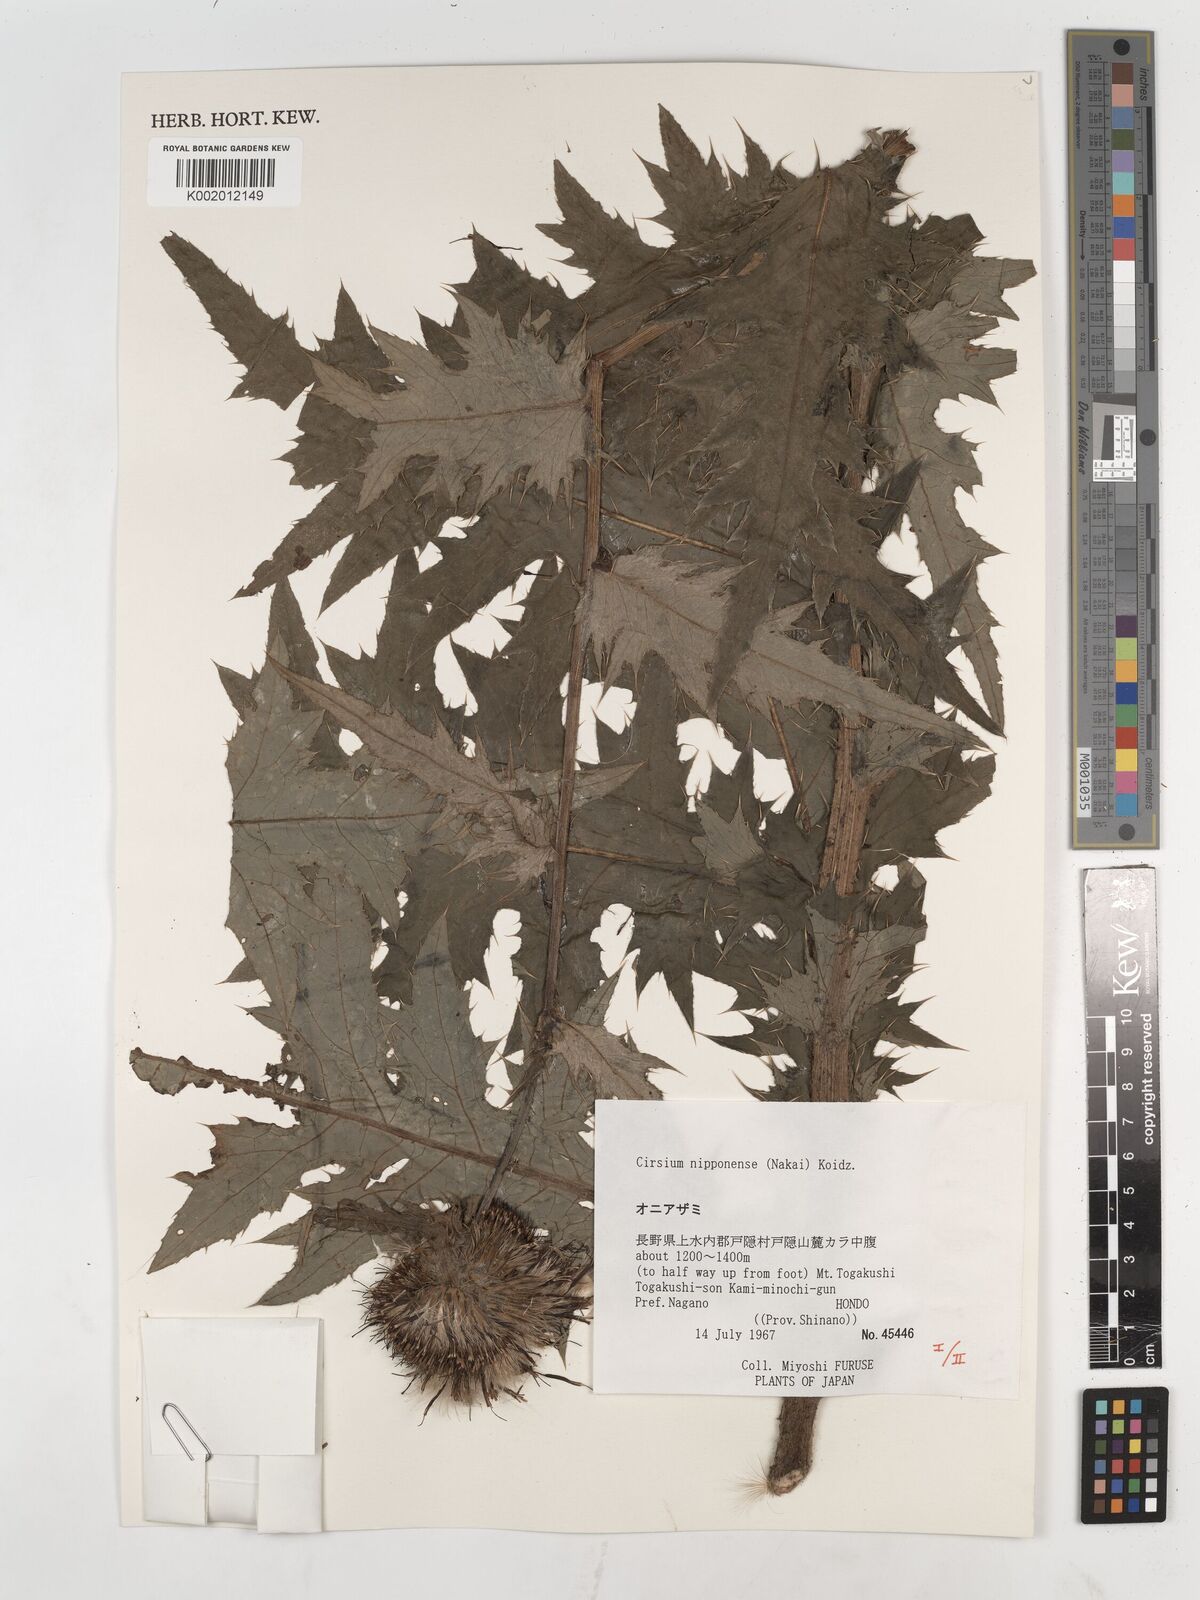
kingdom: Plantae
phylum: Tracheophyta
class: Magnoliopsida
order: Asterales
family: Asteraceae
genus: Cirsium
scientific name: Cirsium borealinipponense
